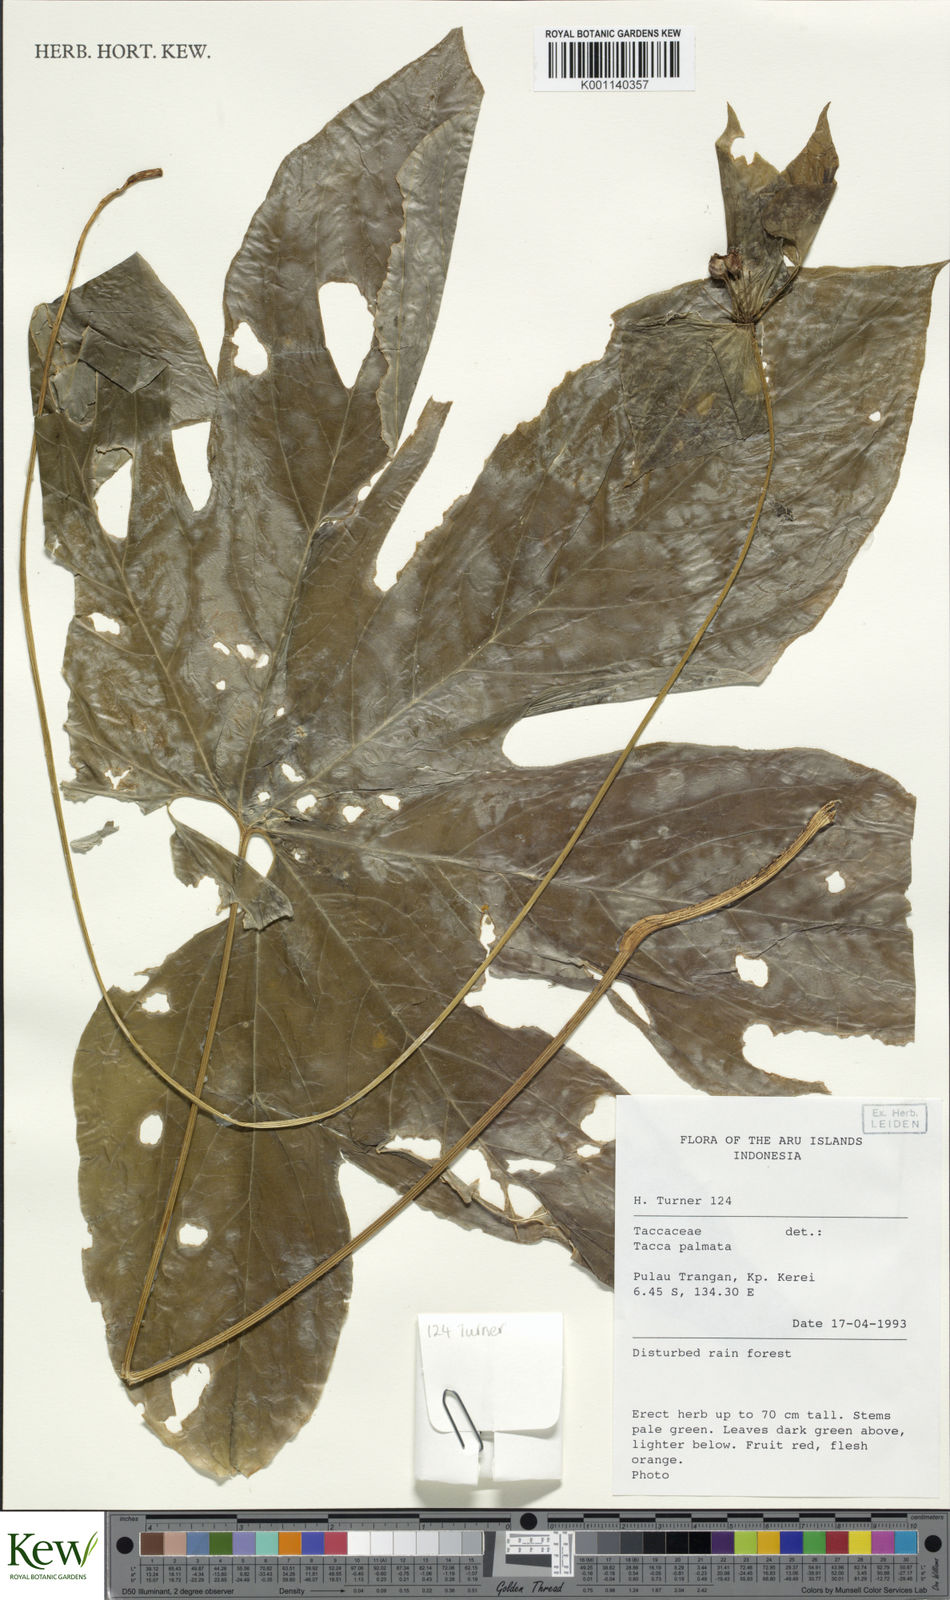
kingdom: Plantae
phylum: Tracheophyta
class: Liliopsida
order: Dioscoreales
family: Dioscoreaceae
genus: Tacca
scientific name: Tacca palmata
